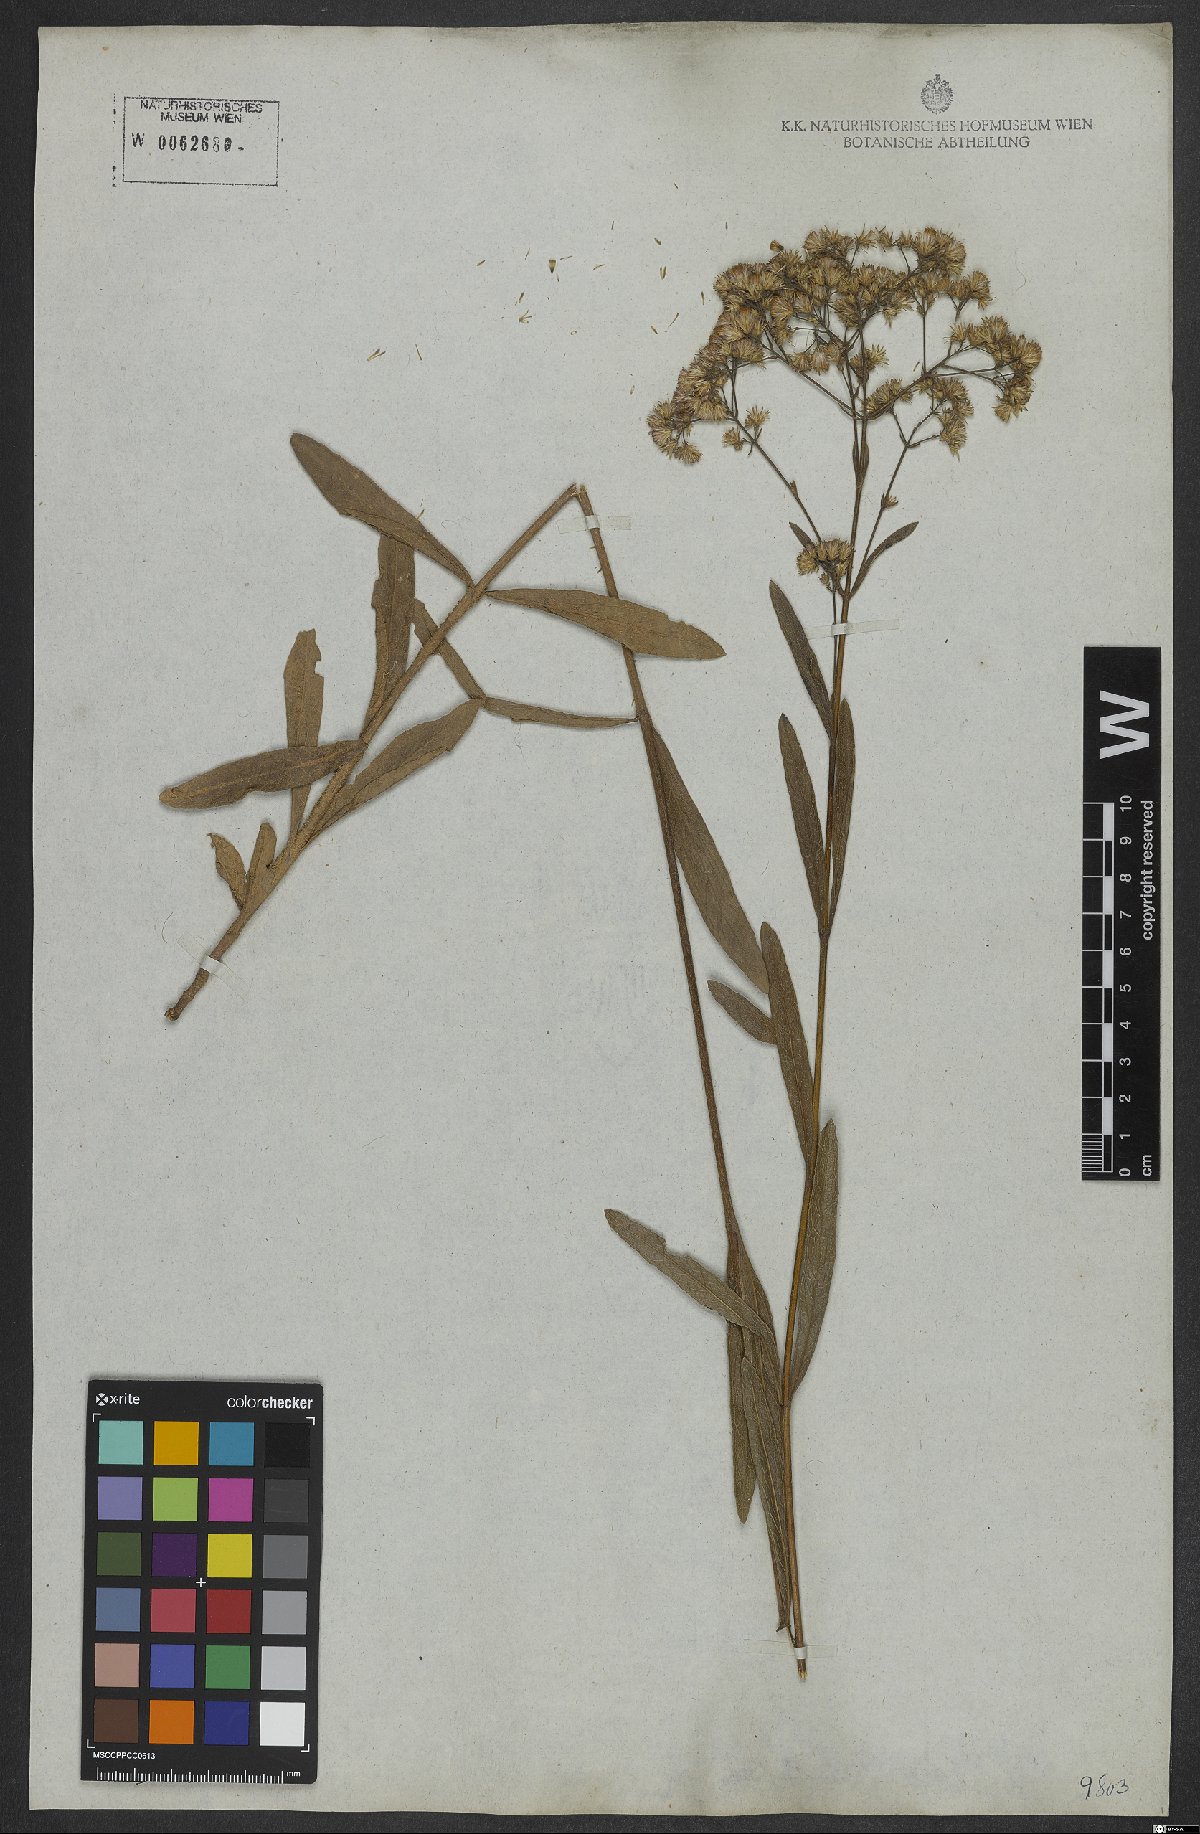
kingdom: Plantae
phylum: Tracheophyta
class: Magnoliopsida
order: Asterales
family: Asteraceae
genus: Ayapana
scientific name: Ayapana amygdalina
